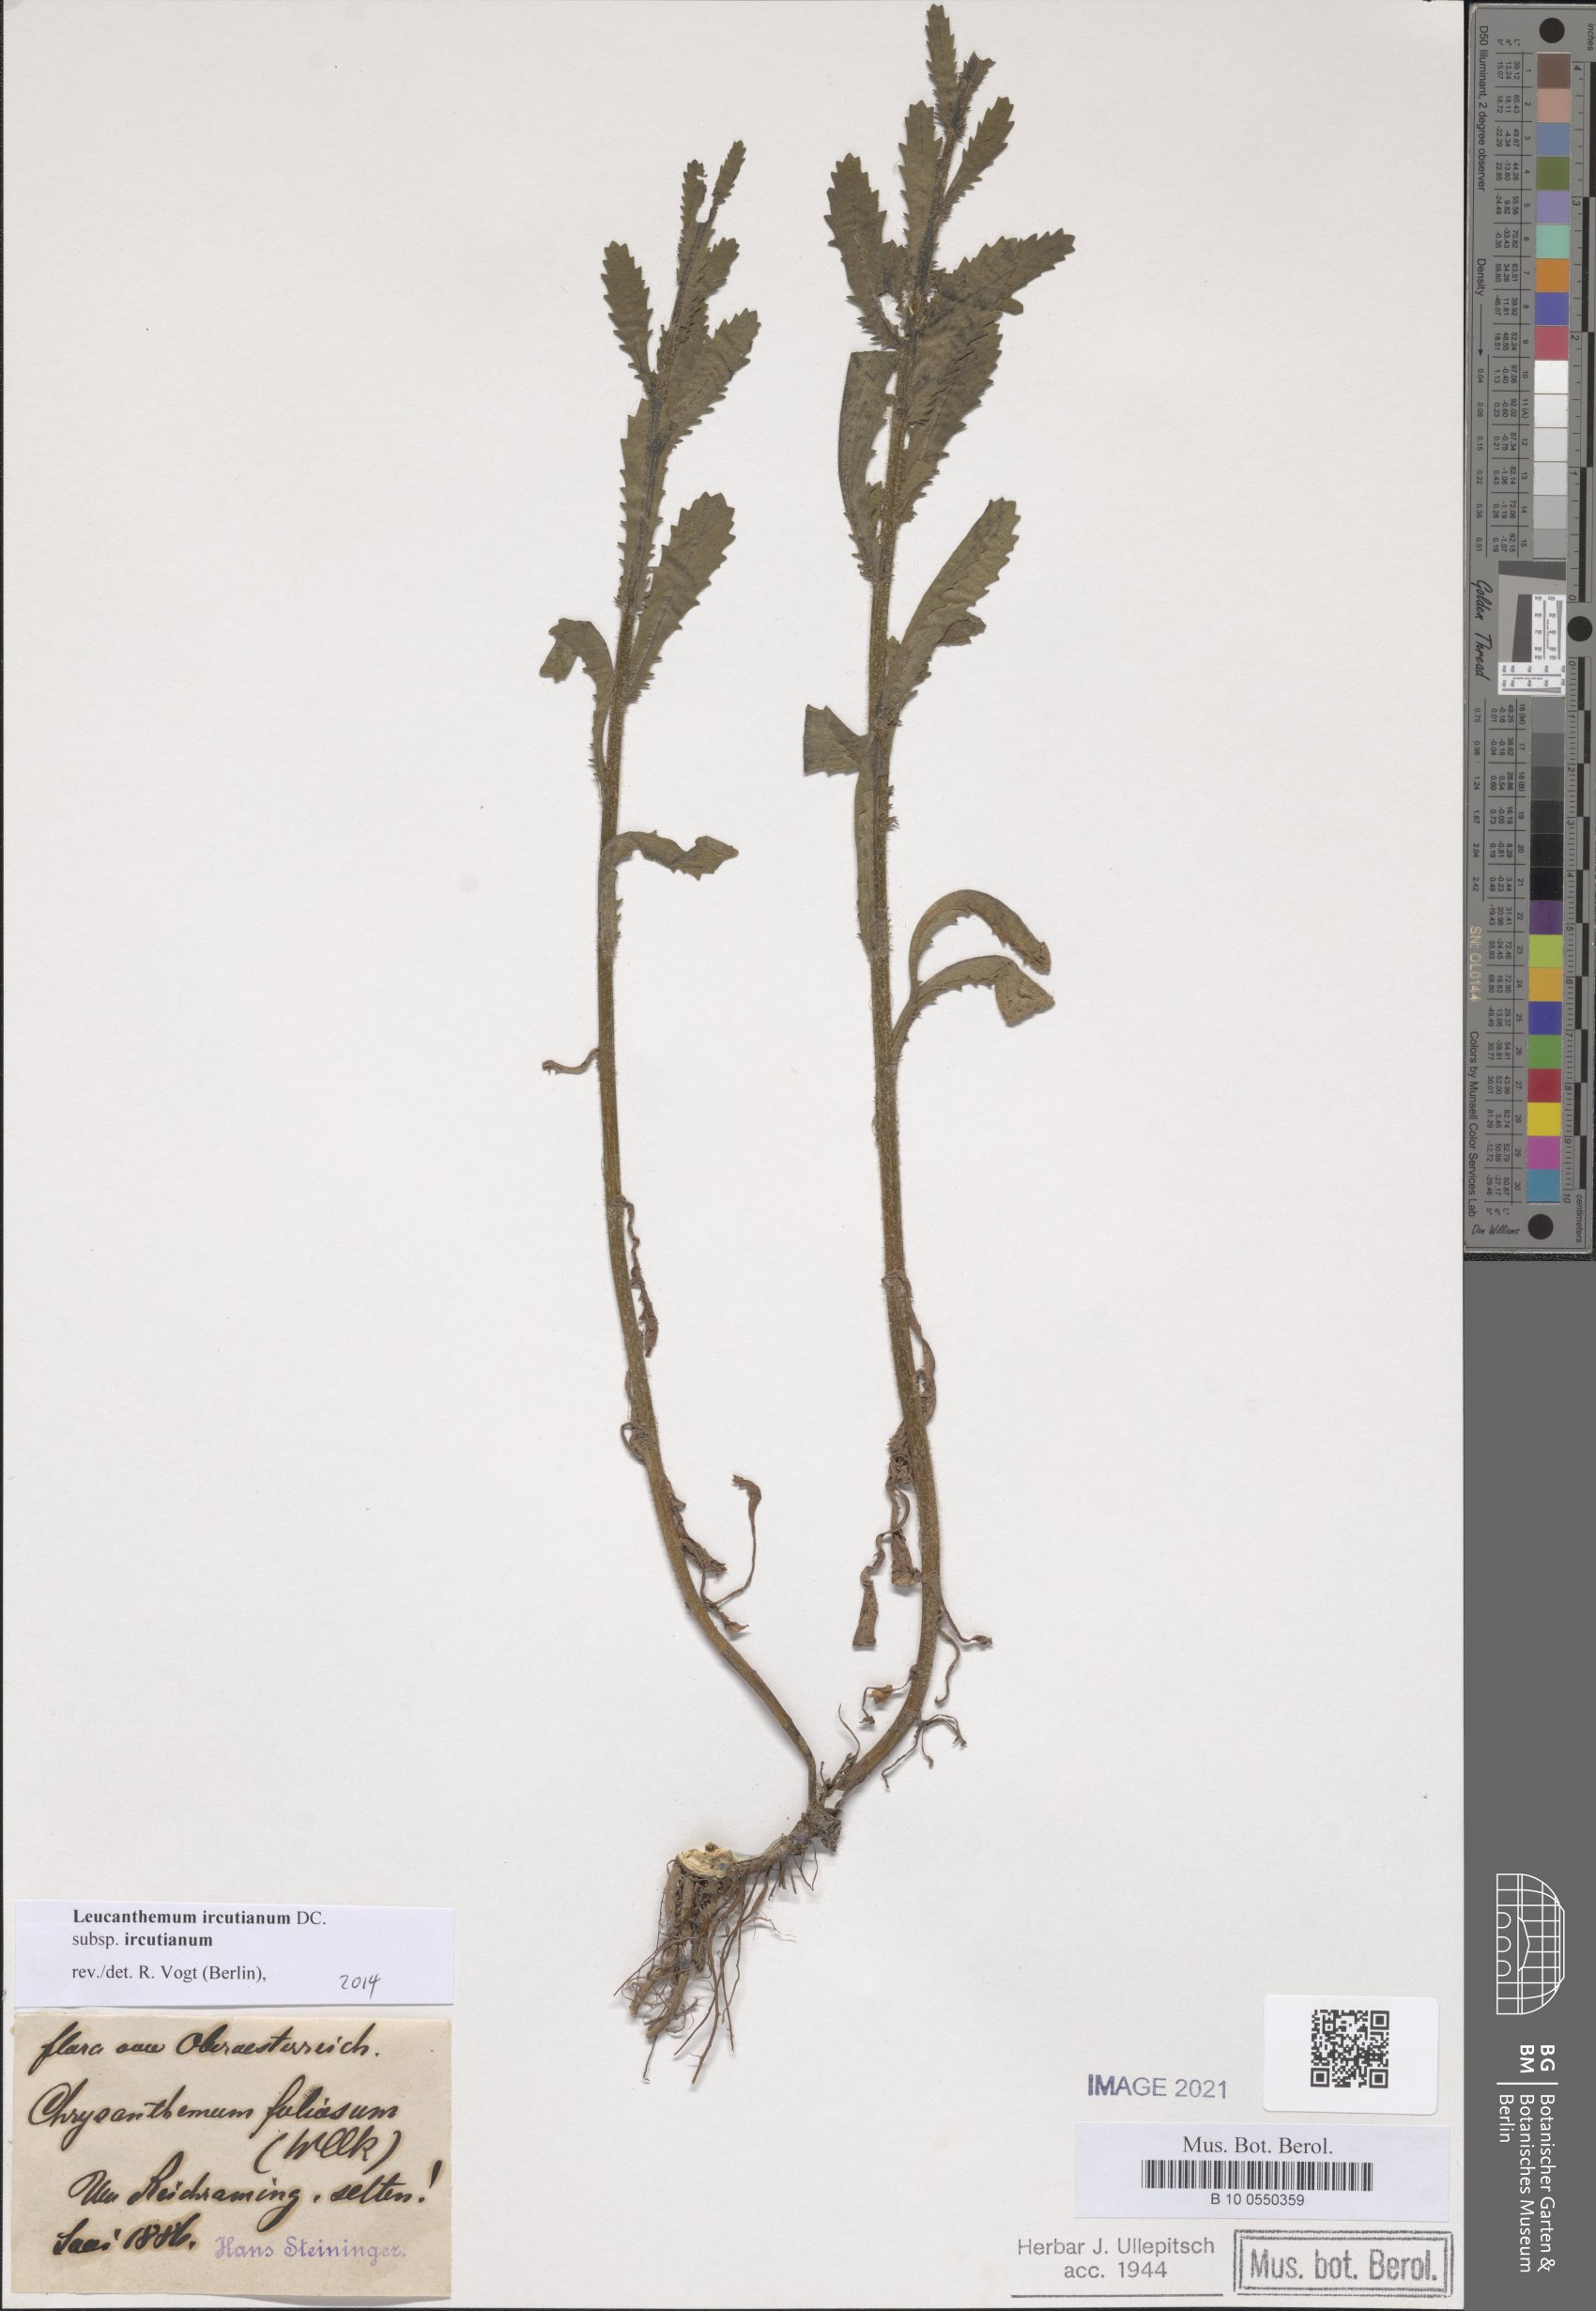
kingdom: Plantae
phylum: Tracheophyta
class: Magnoliopsida
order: Asterales
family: Asteraceae
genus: Leucanthemum
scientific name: Leucanthemum ircutianum
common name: Daisy
